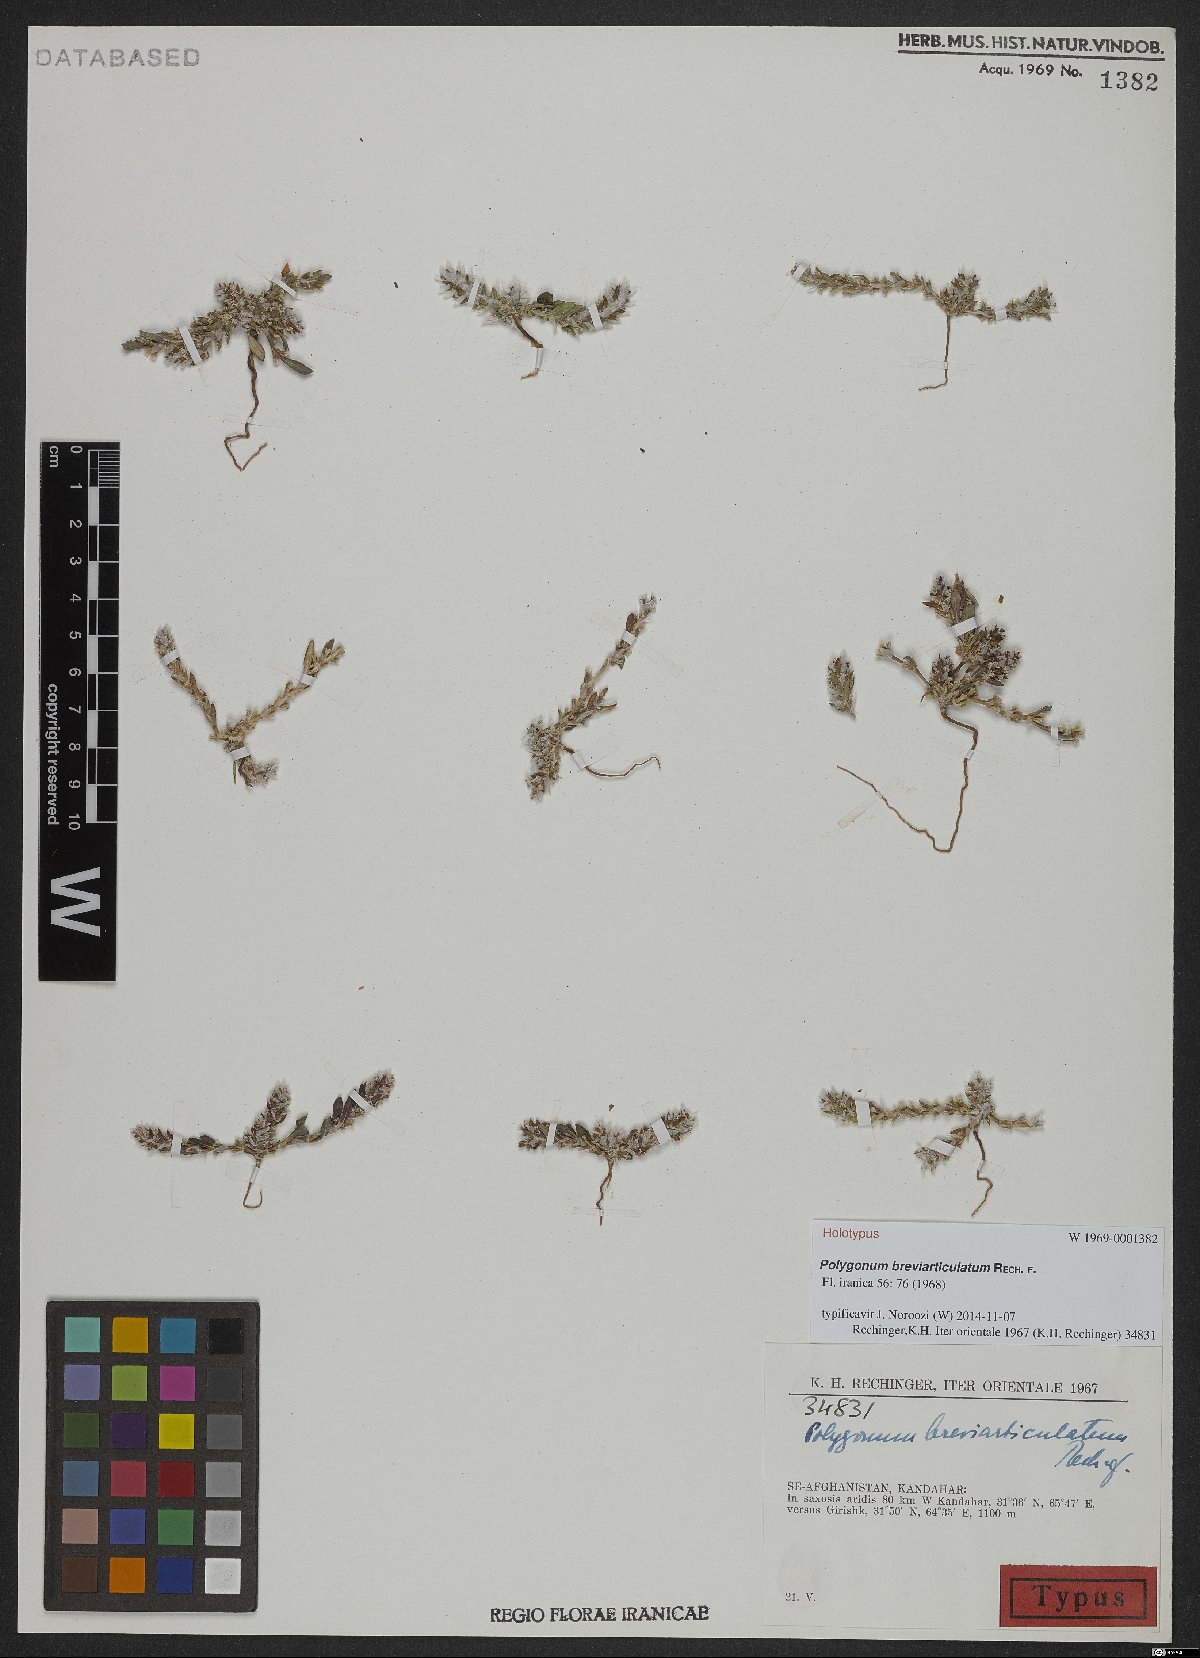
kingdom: Plantae
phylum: Tracheophyta
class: Magnoliopsida
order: Caryophyllales
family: Polygonaceae
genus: Polygonum
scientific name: Polygonum breviarticulatum
